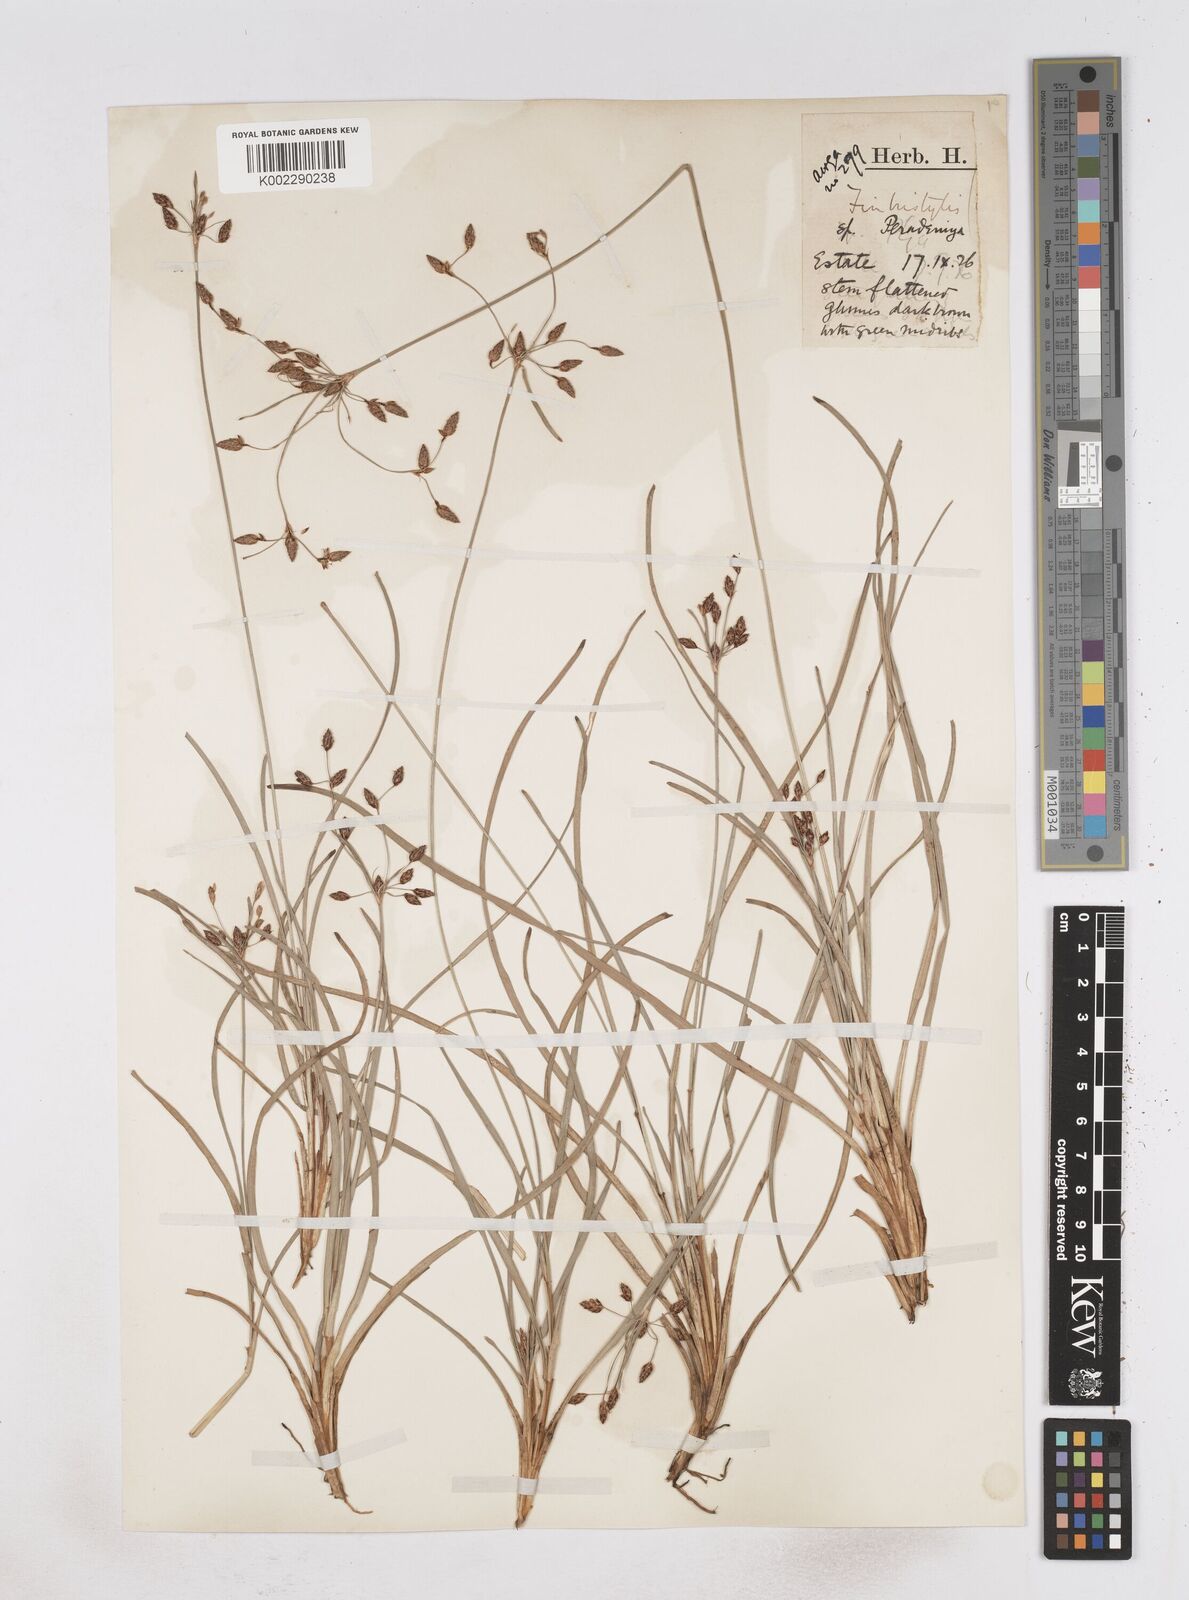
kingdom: Plantae
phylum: Tracheophyta
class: Liliopsida
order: Poales
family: Cyperaceae
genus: Fimbristylis
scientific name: Fimbristylis
